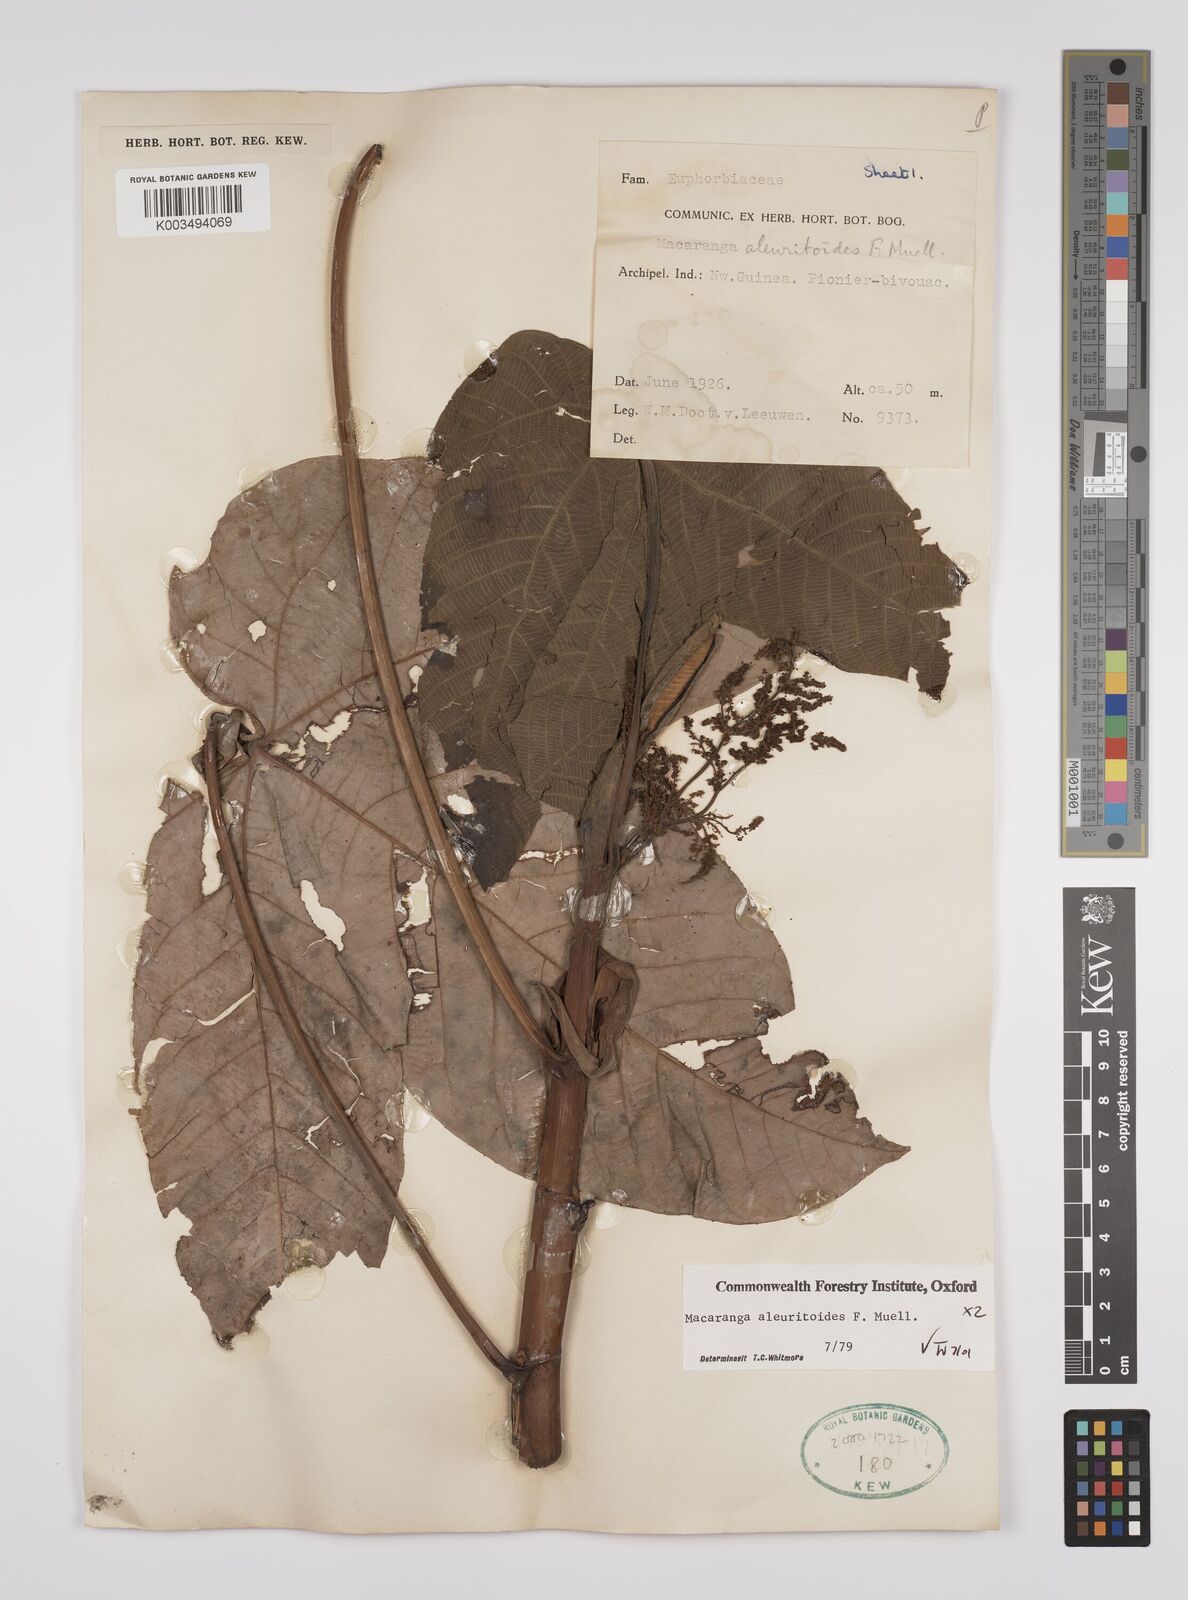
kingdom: Plantae
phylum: Tracheophyta
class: Magnoliopsida
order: Malpighiales
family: Euphorbiaceae
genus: Macaranga
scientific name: Macaranga aleuritoides
